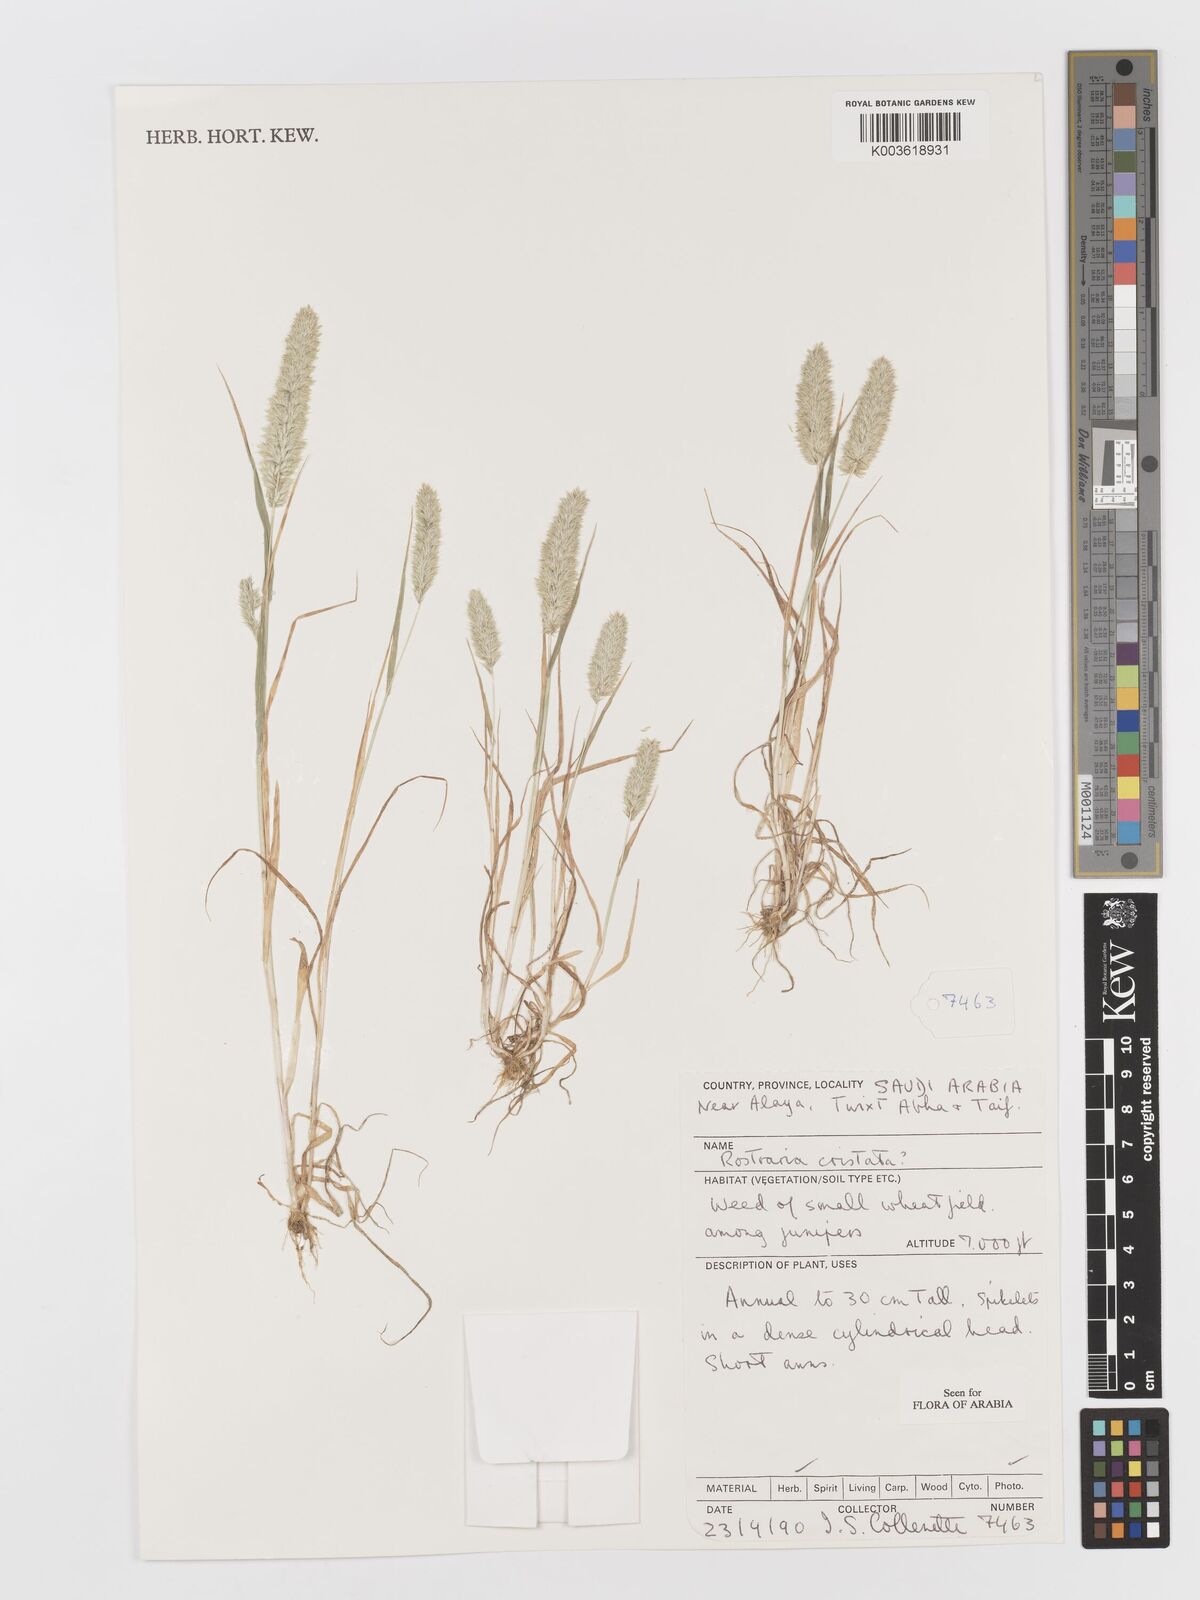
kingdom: Plantae
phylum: Tracheophyta
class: Liliopsida
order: Poales
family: Poaceae
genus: Rostraria
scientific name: Rostraria cristata
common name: Mediterranean hair-grass
